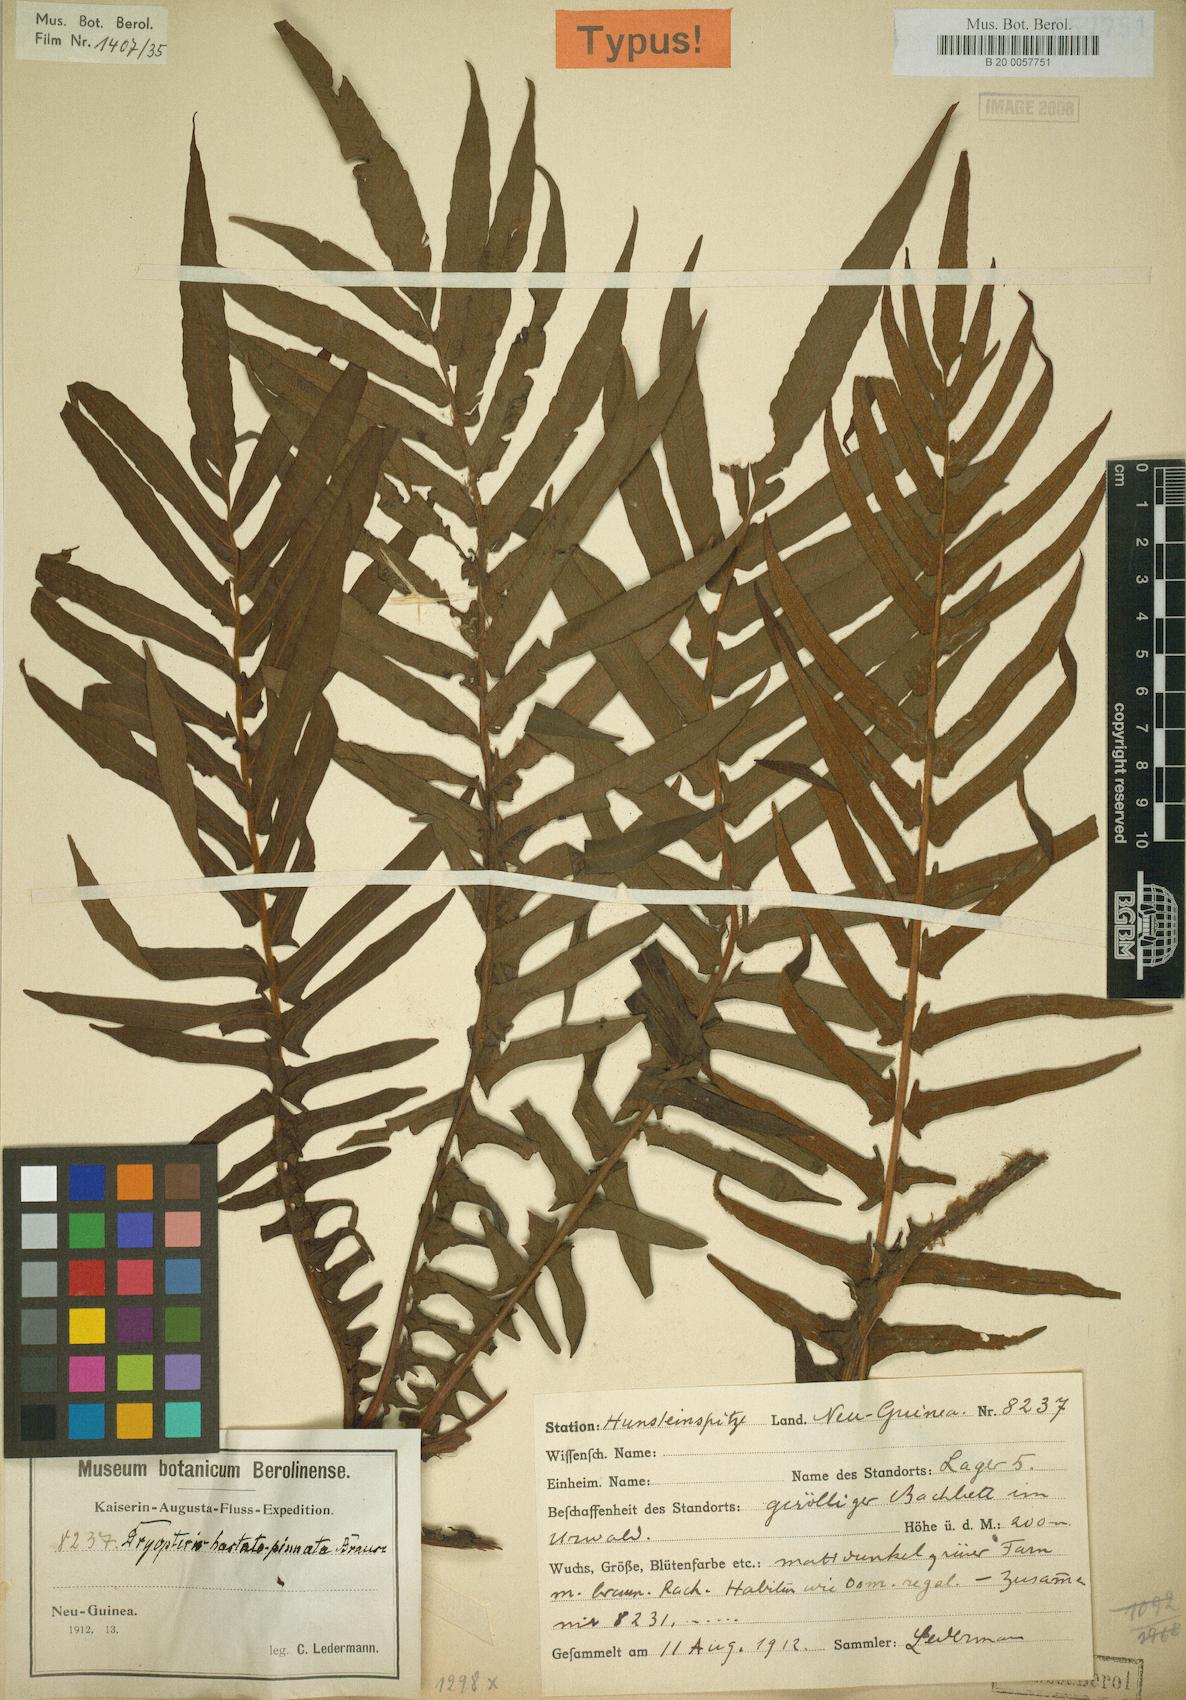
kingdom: Plantae
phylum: Tracheophyta
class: Polypodiopsida
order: Polypodiales
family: Thelypteridaceae
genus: Sphaerostephanos
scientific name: Sphaerostephanos hastatopinnatus
